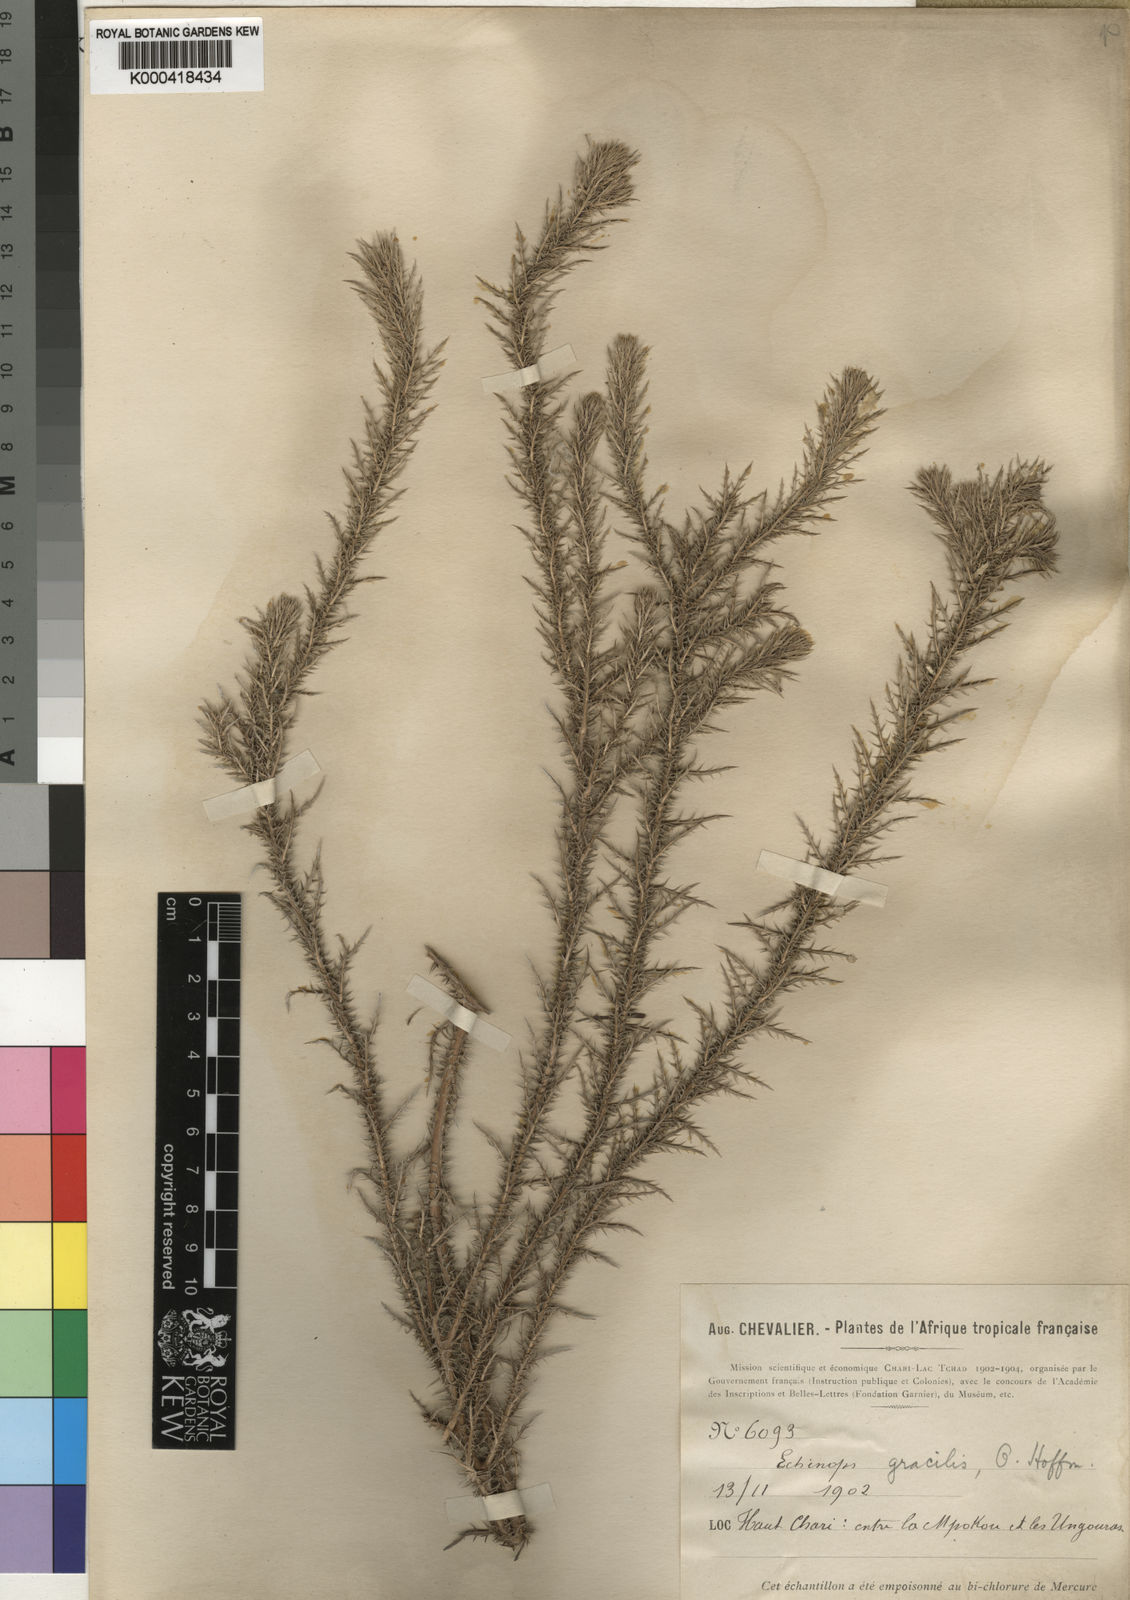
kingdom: Plantae
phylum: Tracheophyta
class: Magnoliopsida
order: Asterales
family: Asteraceae
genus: Echinops
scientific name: Echinops gracilis
